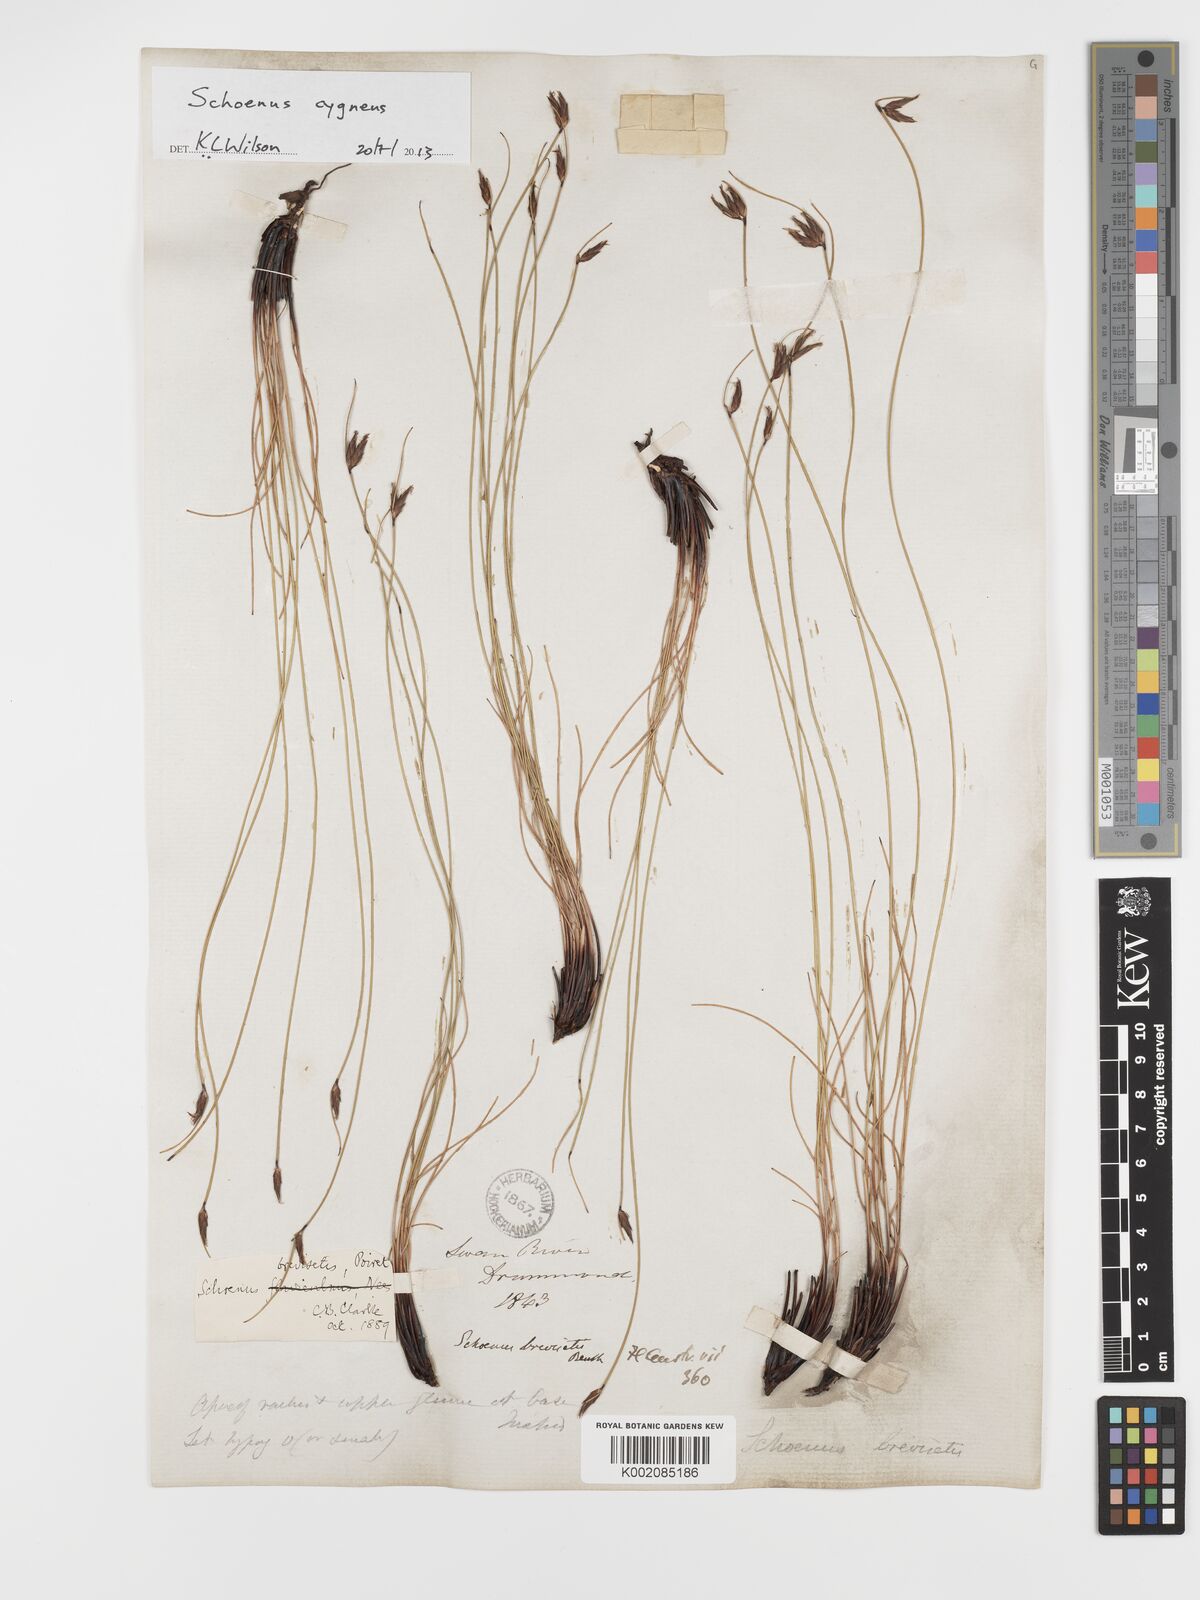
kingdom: Plantae
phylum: Tracheophyta
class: Liliopsida
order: Poales
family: Cyperaceae
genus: Schoenus
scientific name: Schoenus cygneus
